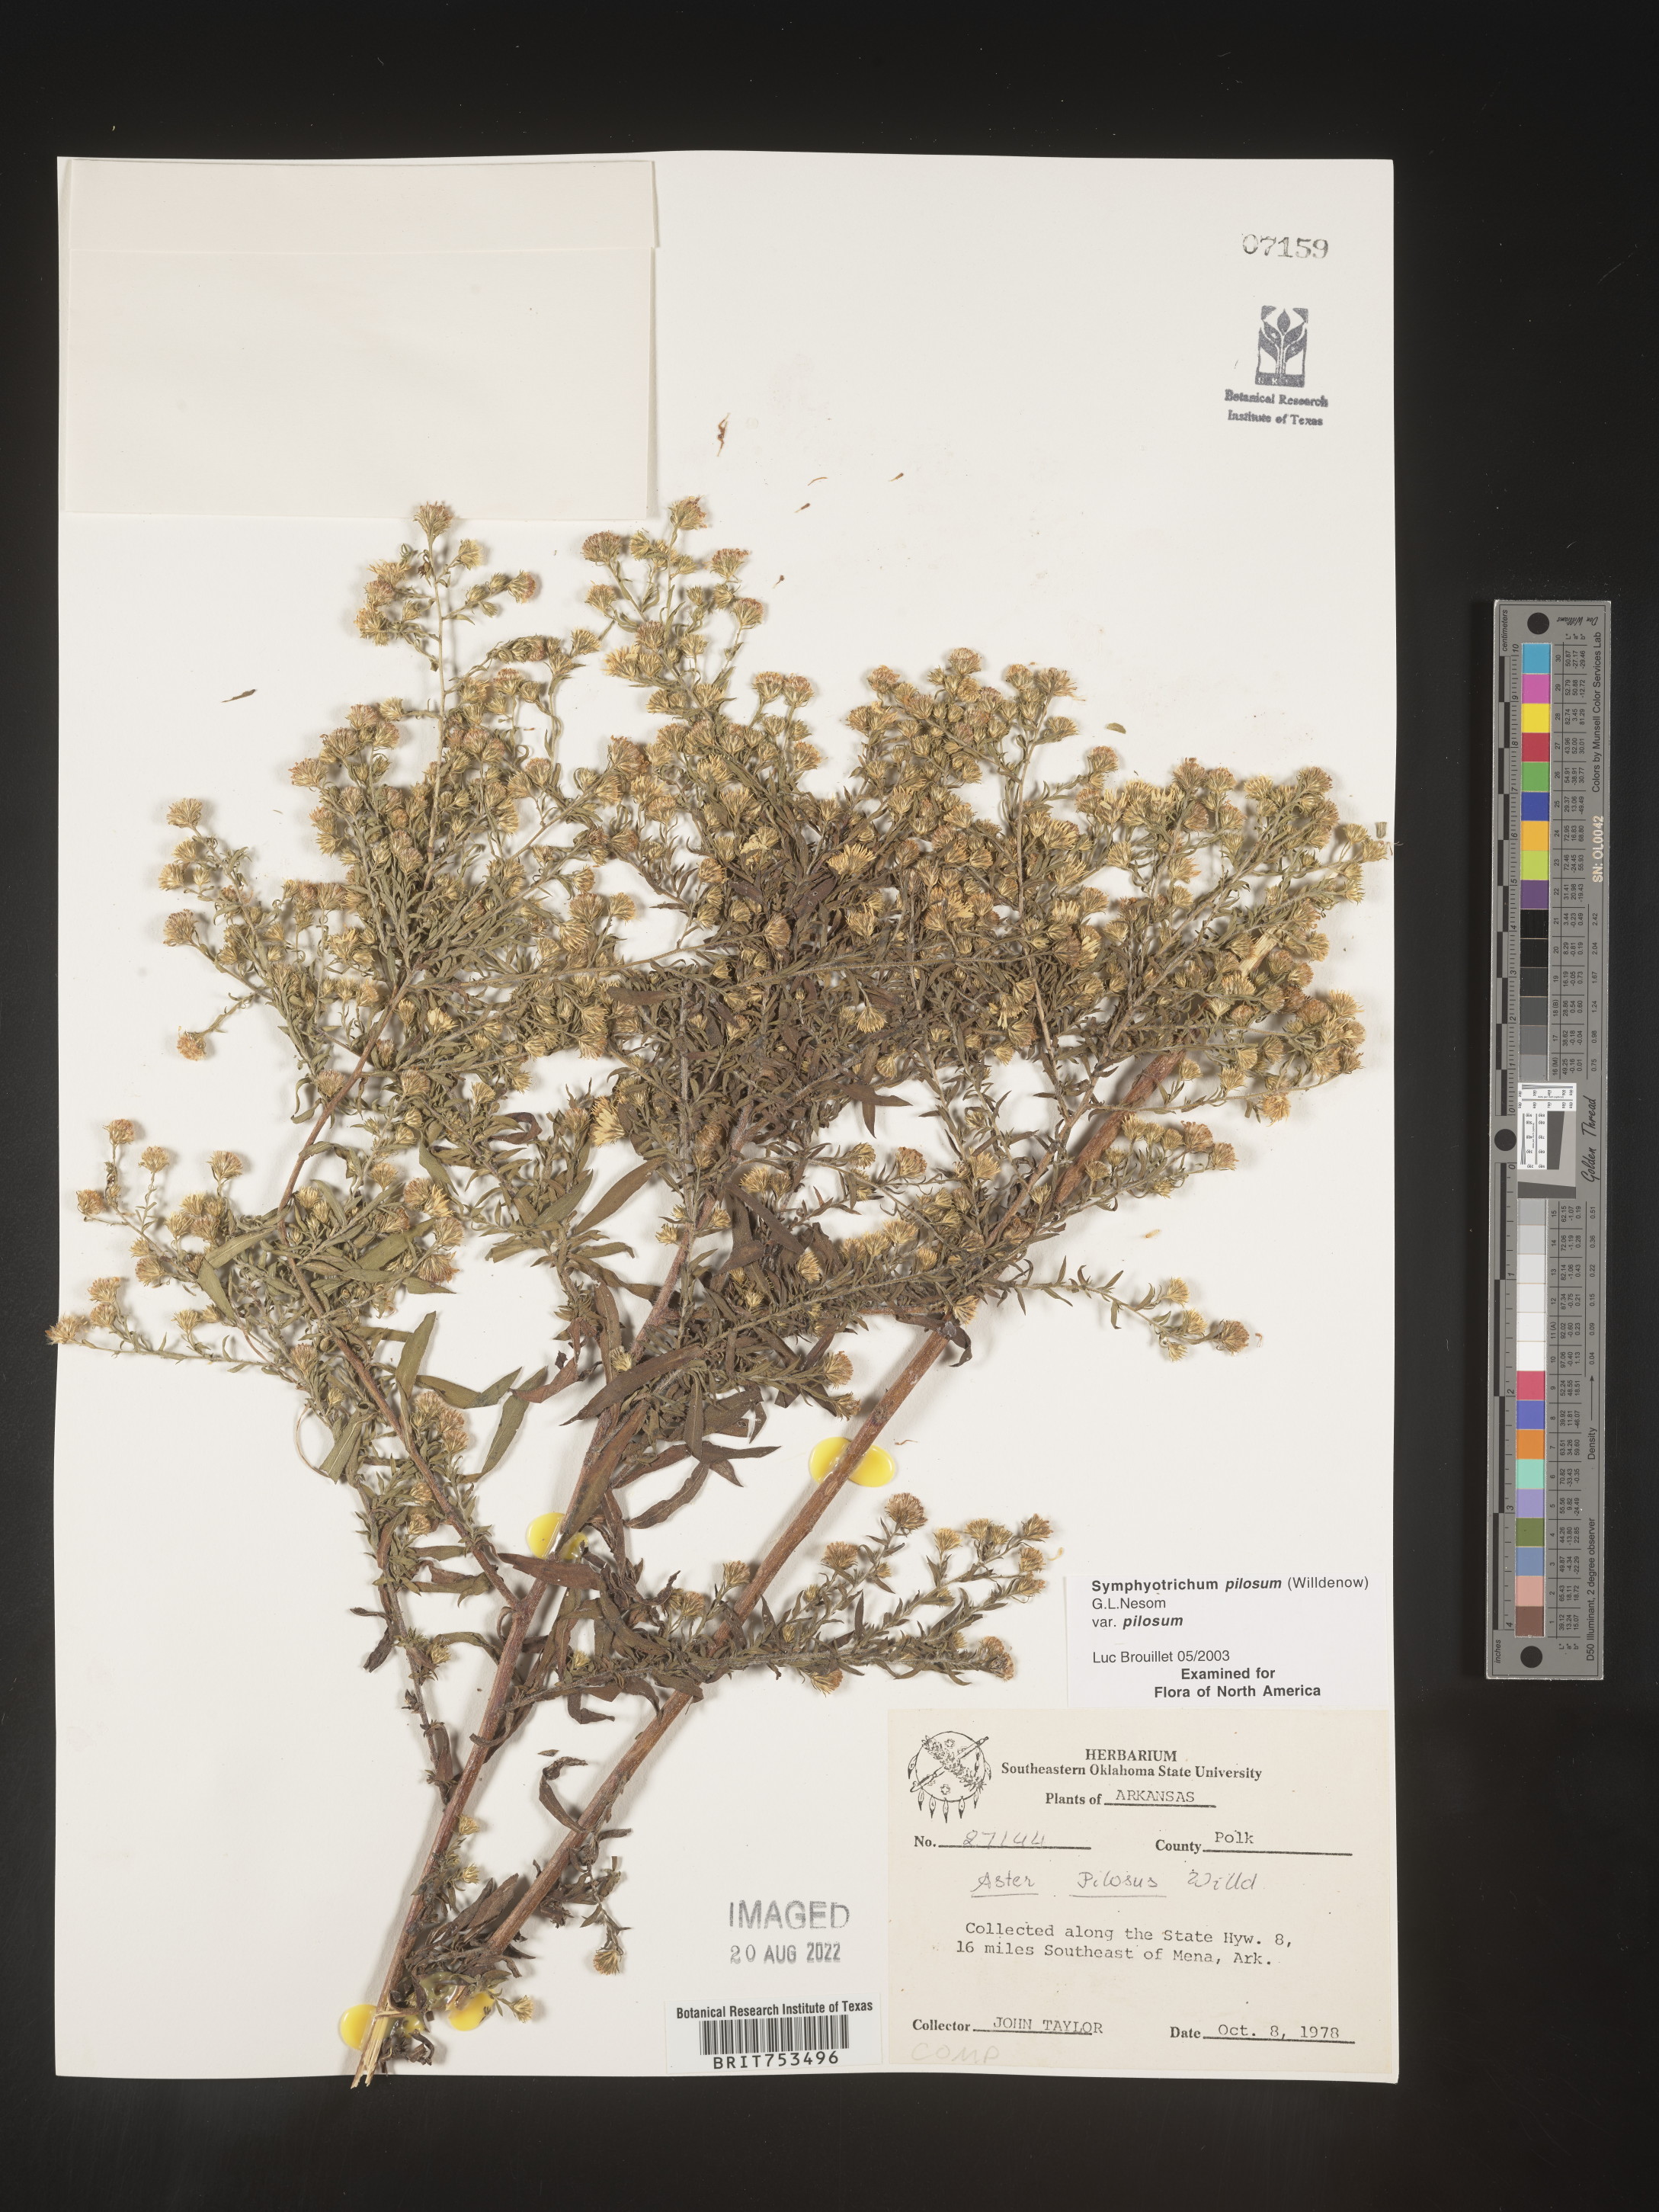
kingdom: Plantae
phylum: Tracheophyta
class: Magnoliopsida
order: Asterales
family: Asteraceae
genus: Symphyotrichum
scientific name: Symphyotrichum pilosum
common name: Awl aster
